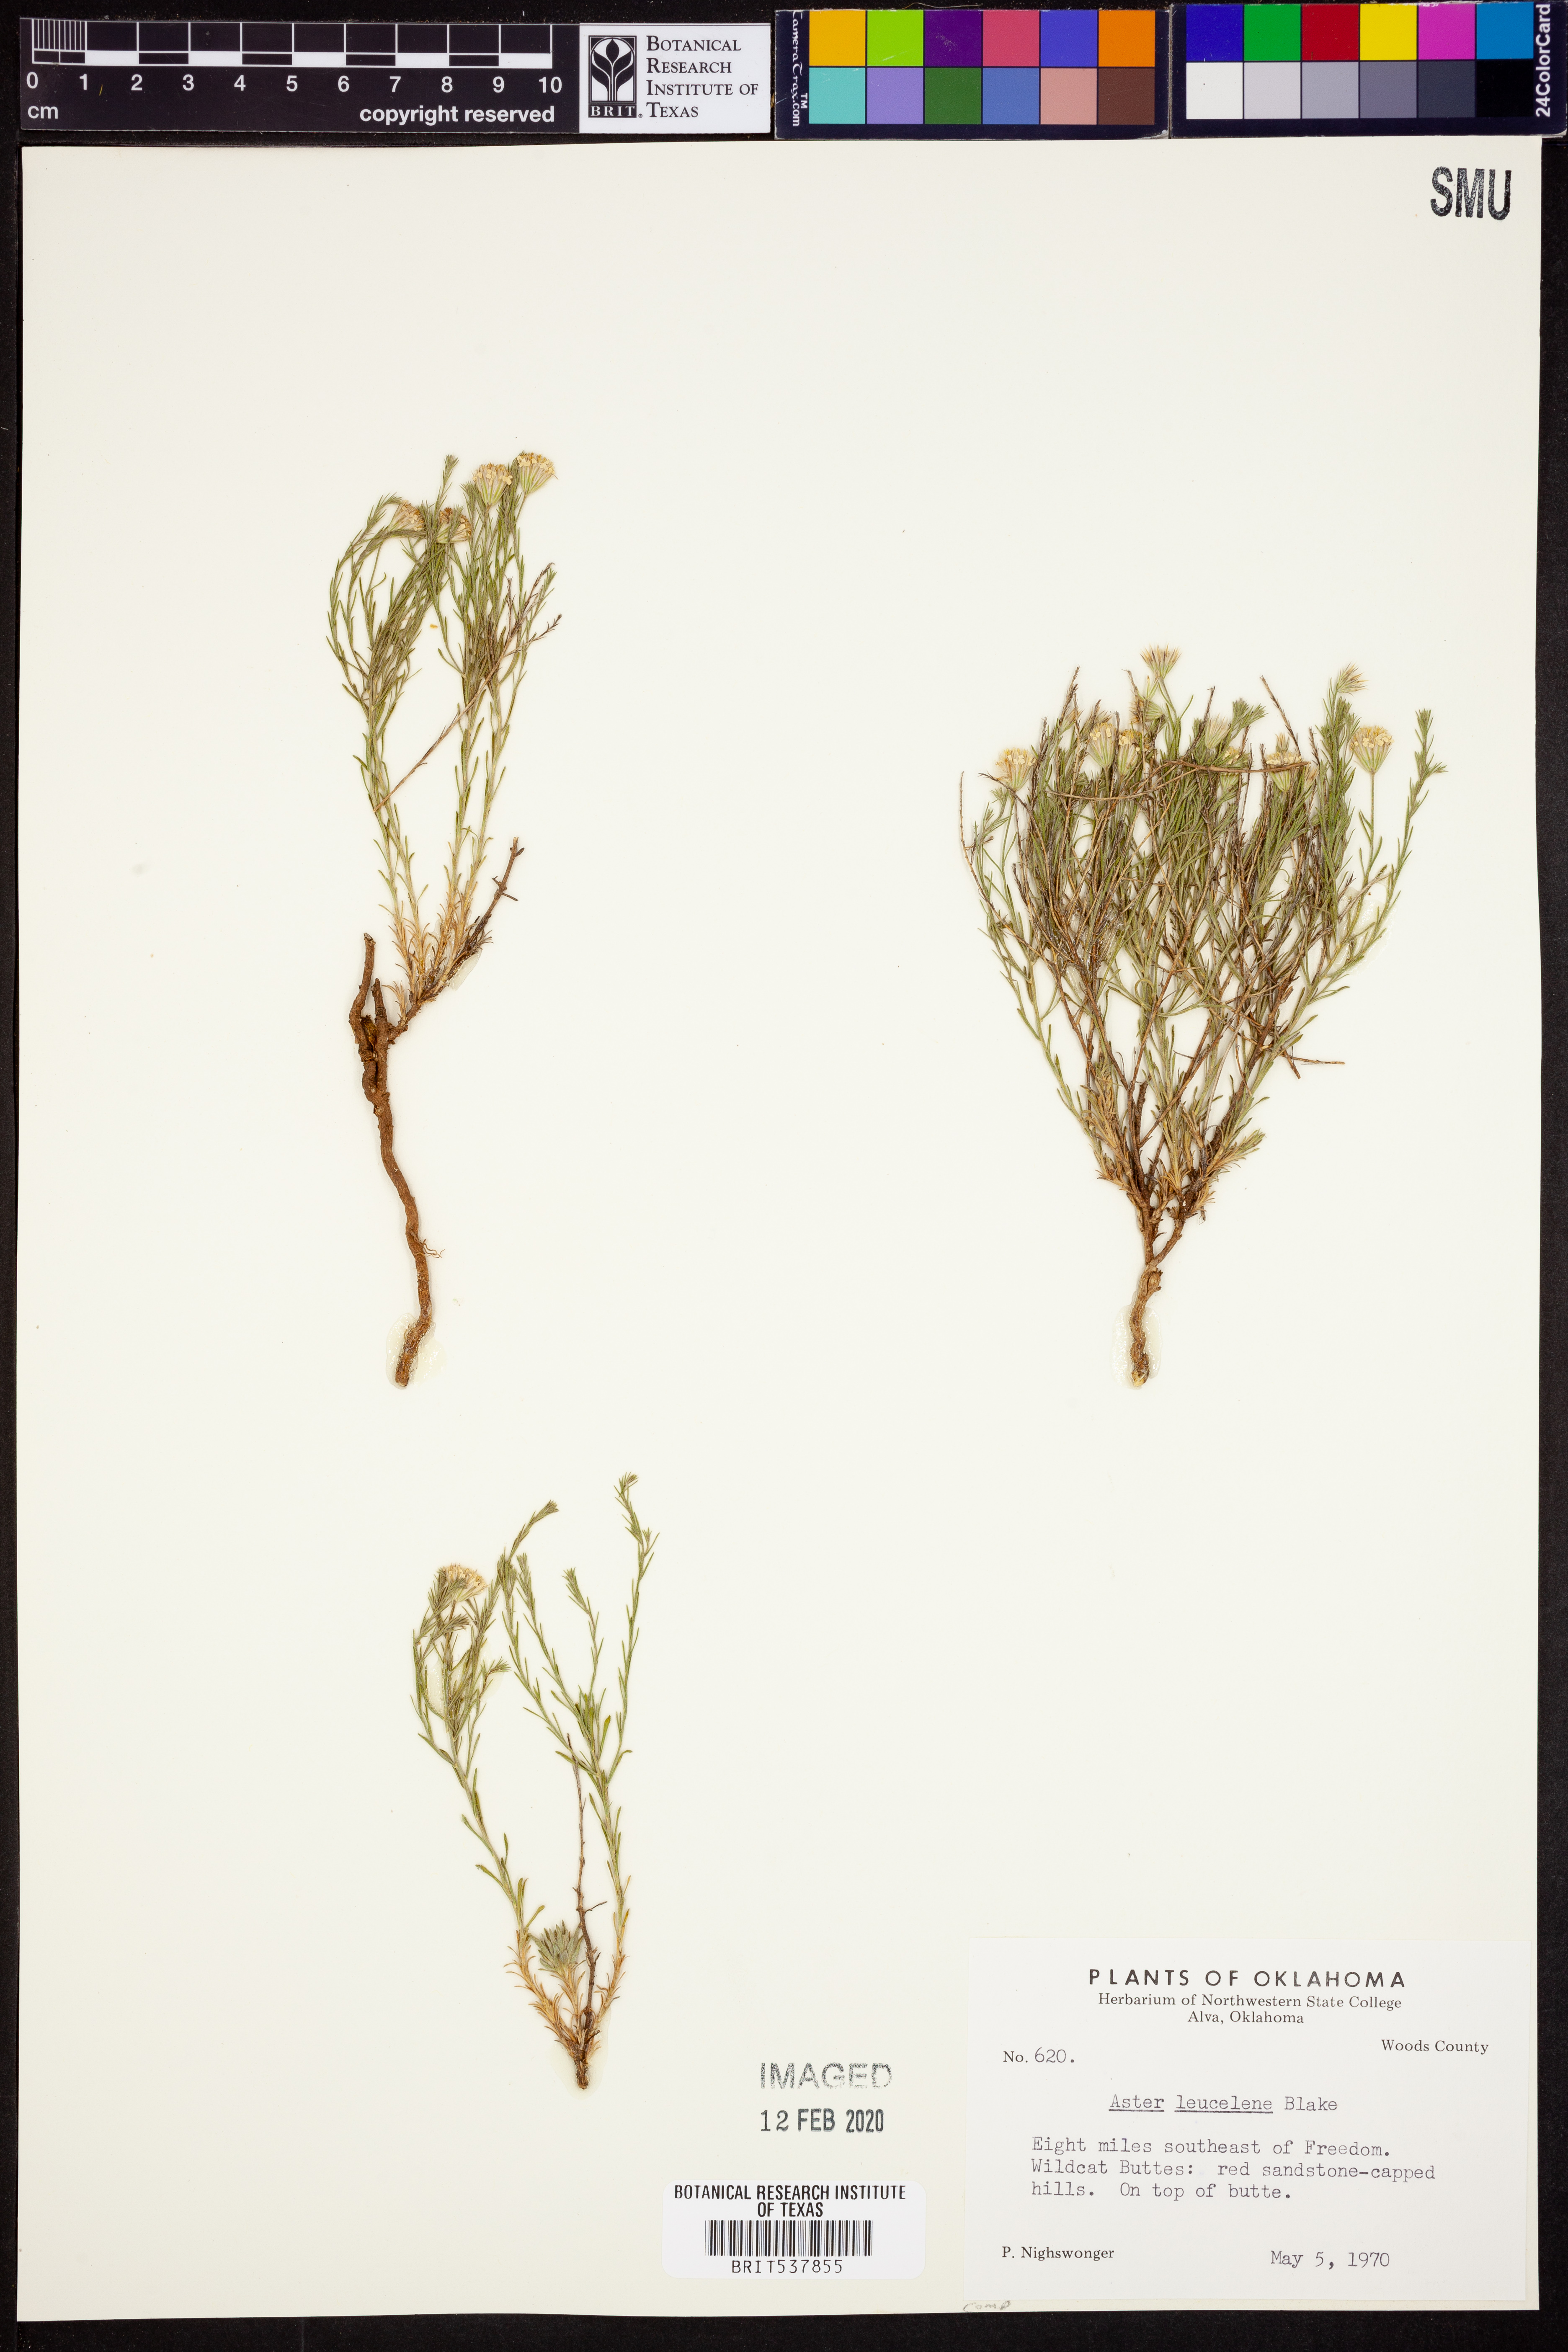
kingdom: Plantae
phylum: Tracheophyta
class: Magnoliopsida
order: Asterales
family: Asteraceae
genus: Chaetopappa
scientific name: Chaetopappa ericoides
